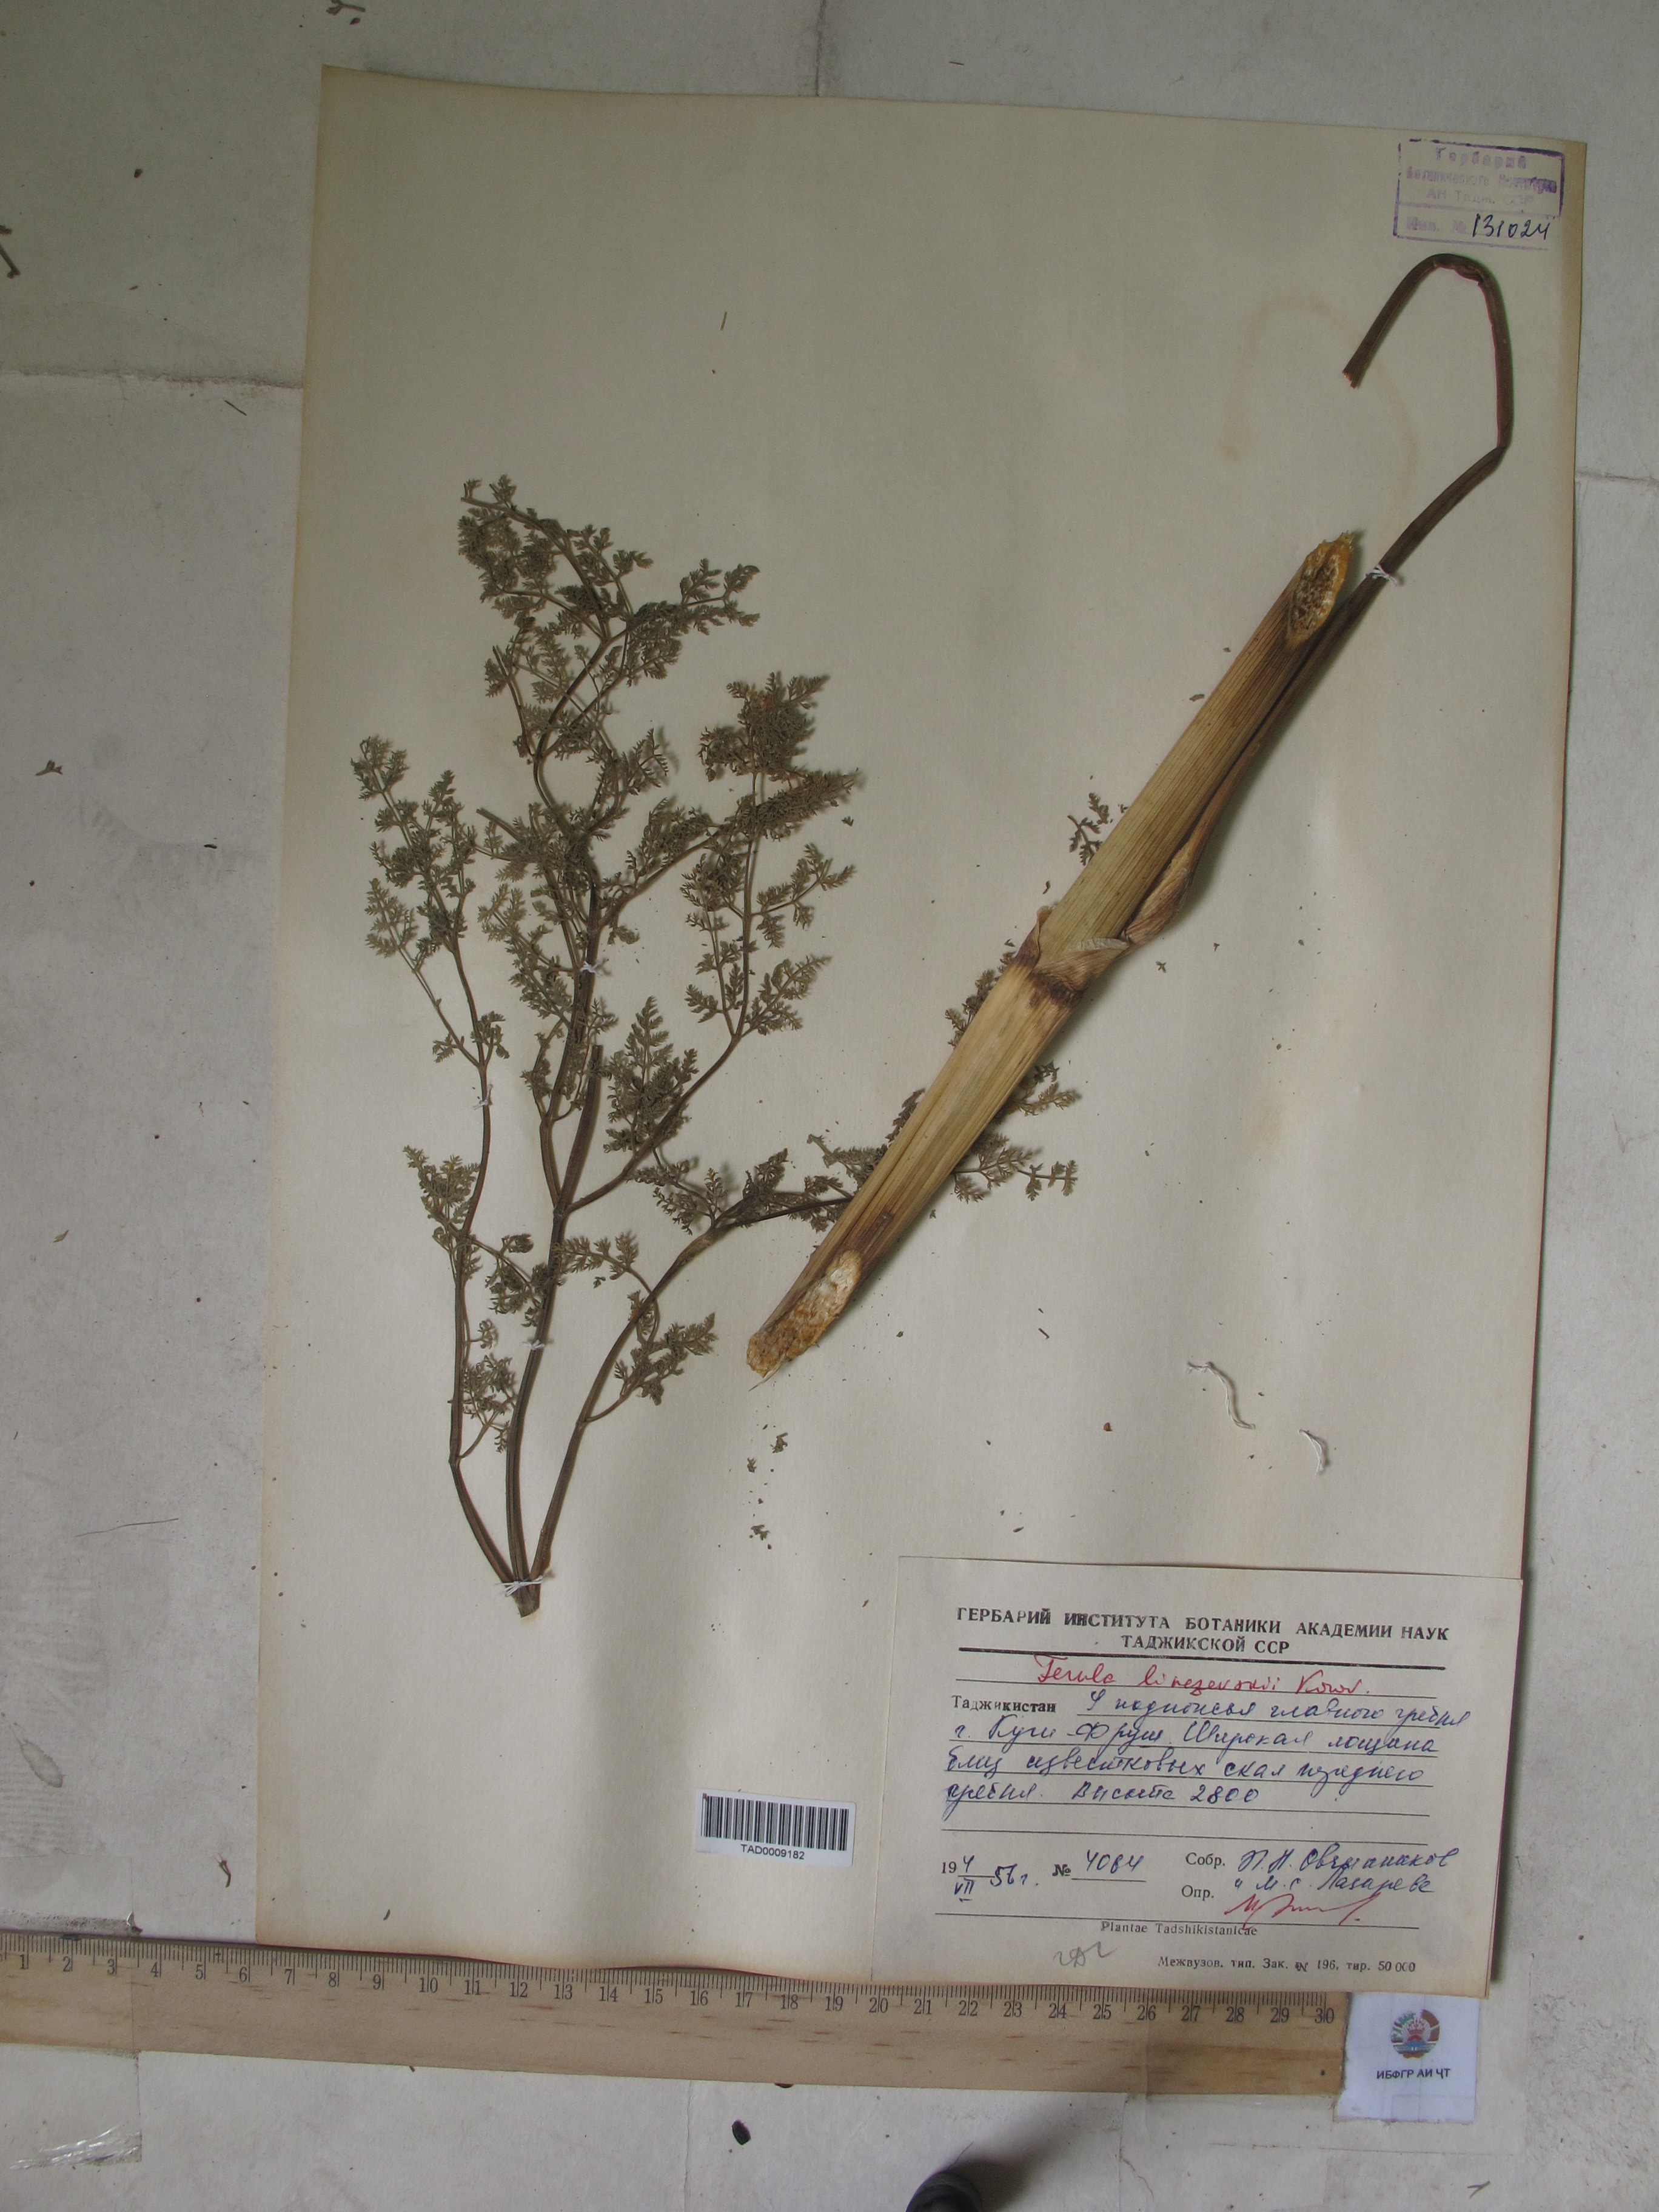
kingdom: Plantae
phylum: Tracheophyta
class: Magnoliopsida
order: Apiales
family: Apiaceae
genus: Ferula
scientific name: Ferula linczevskii
